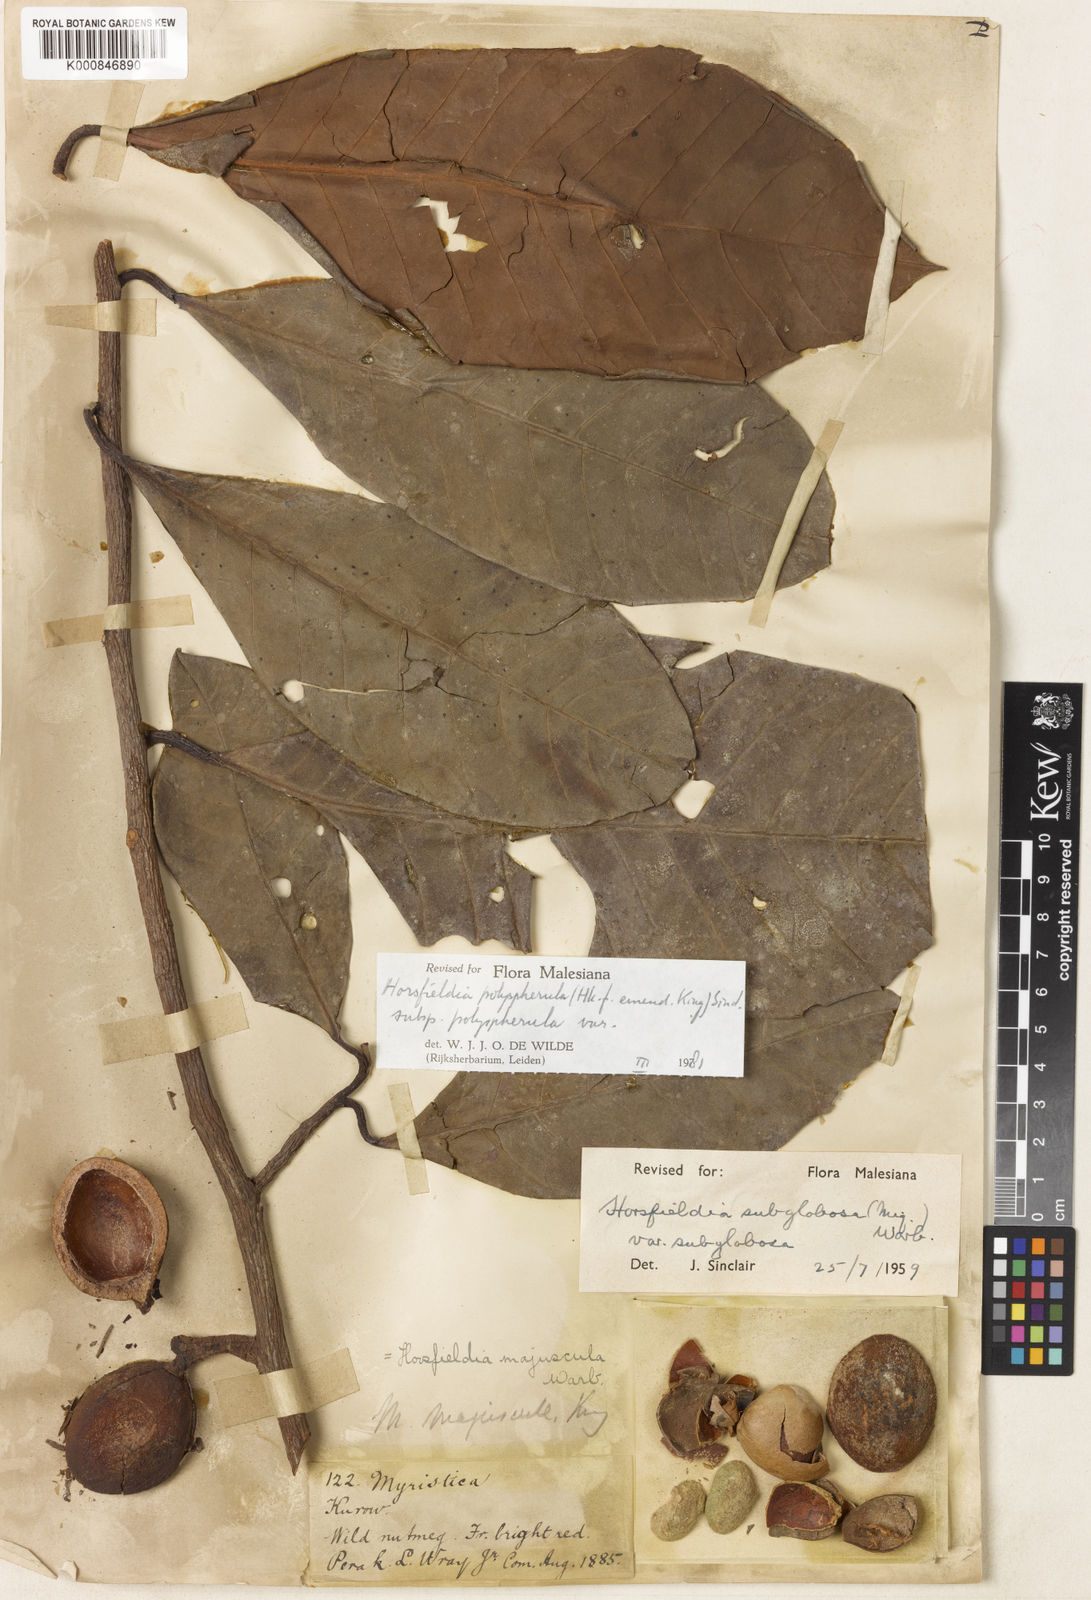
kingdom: Plantae
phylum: Tracheophyta
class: Magnoliopsida
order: Magnoliales
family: Myristicaceae
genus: Horsfieldia
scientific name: Horsfieldia polyspherula
